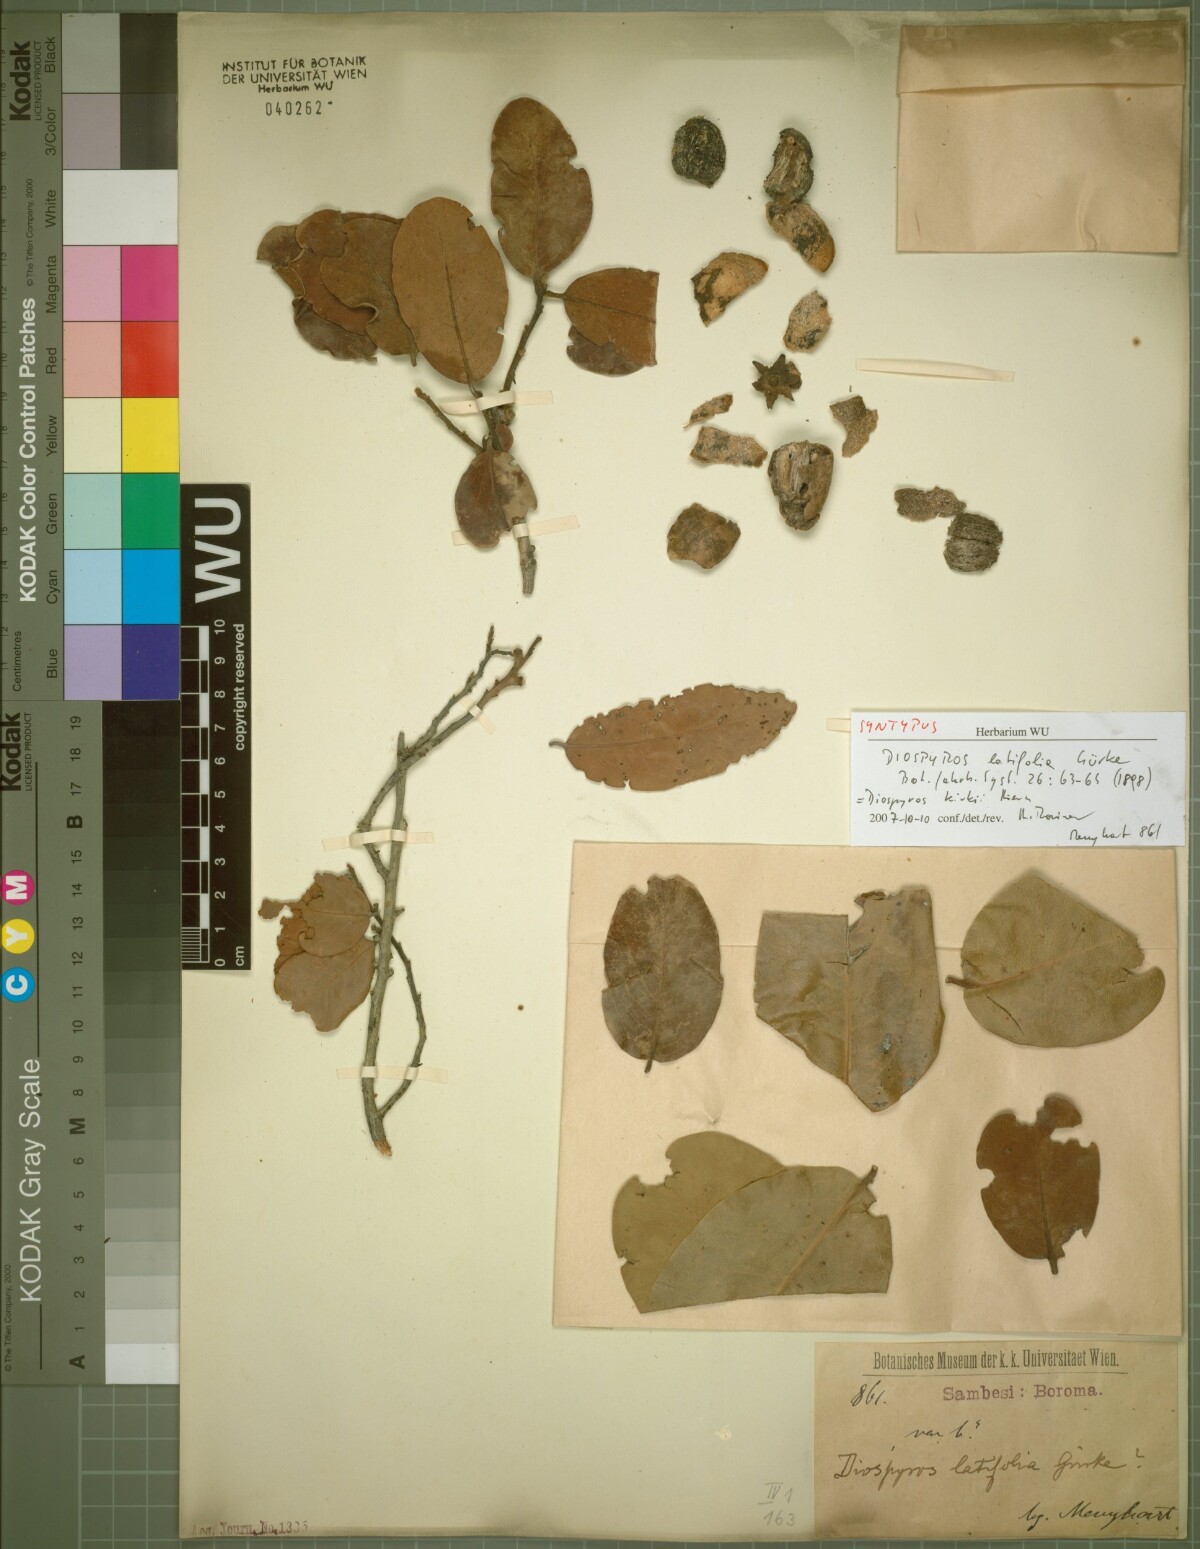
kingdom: Plantae
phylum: Tracheophyta
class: Magnoliopsida
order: Ericales
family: Ebenaceae
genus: Diospyros
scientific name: Diospyros kirkii
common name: Large-leaved jackal berry
